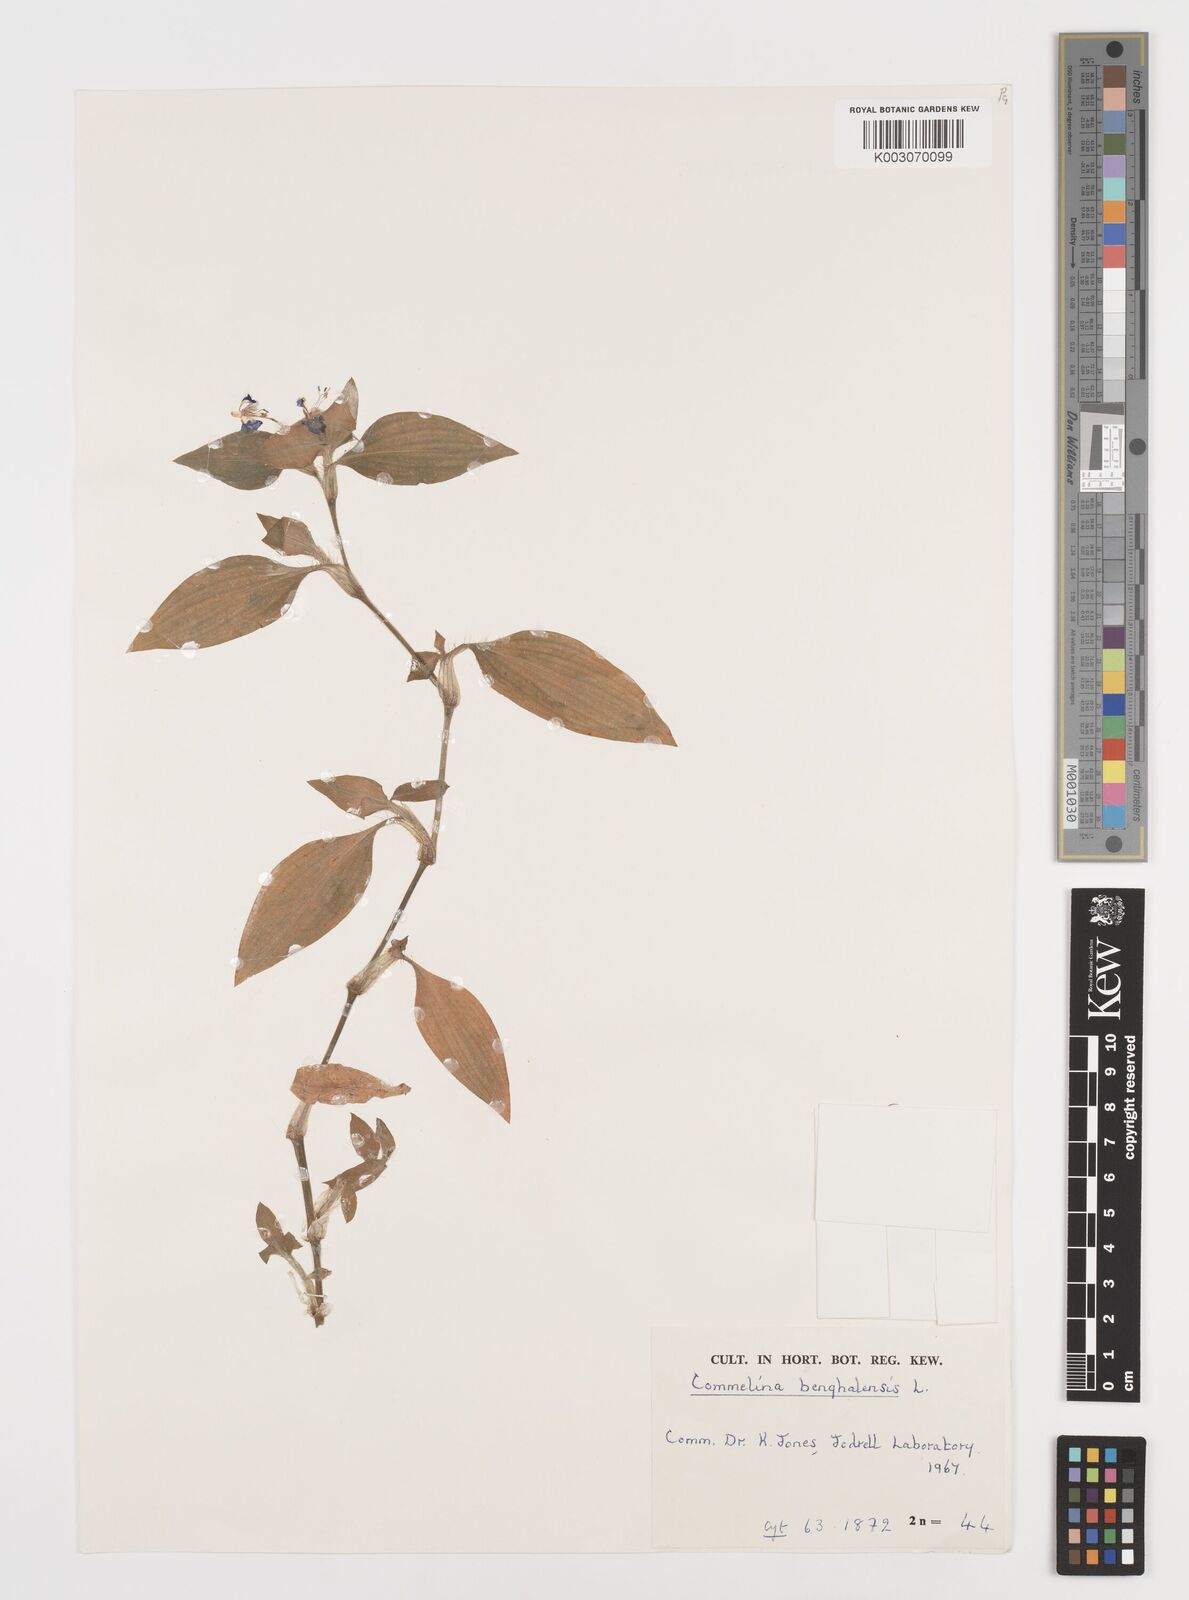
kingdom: Plantae
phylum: Tracheophyta
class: Liliopsida
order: Commelinales
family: Commelinaceae
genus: Commelina
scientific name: Commelina benghalensis
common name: Jio
